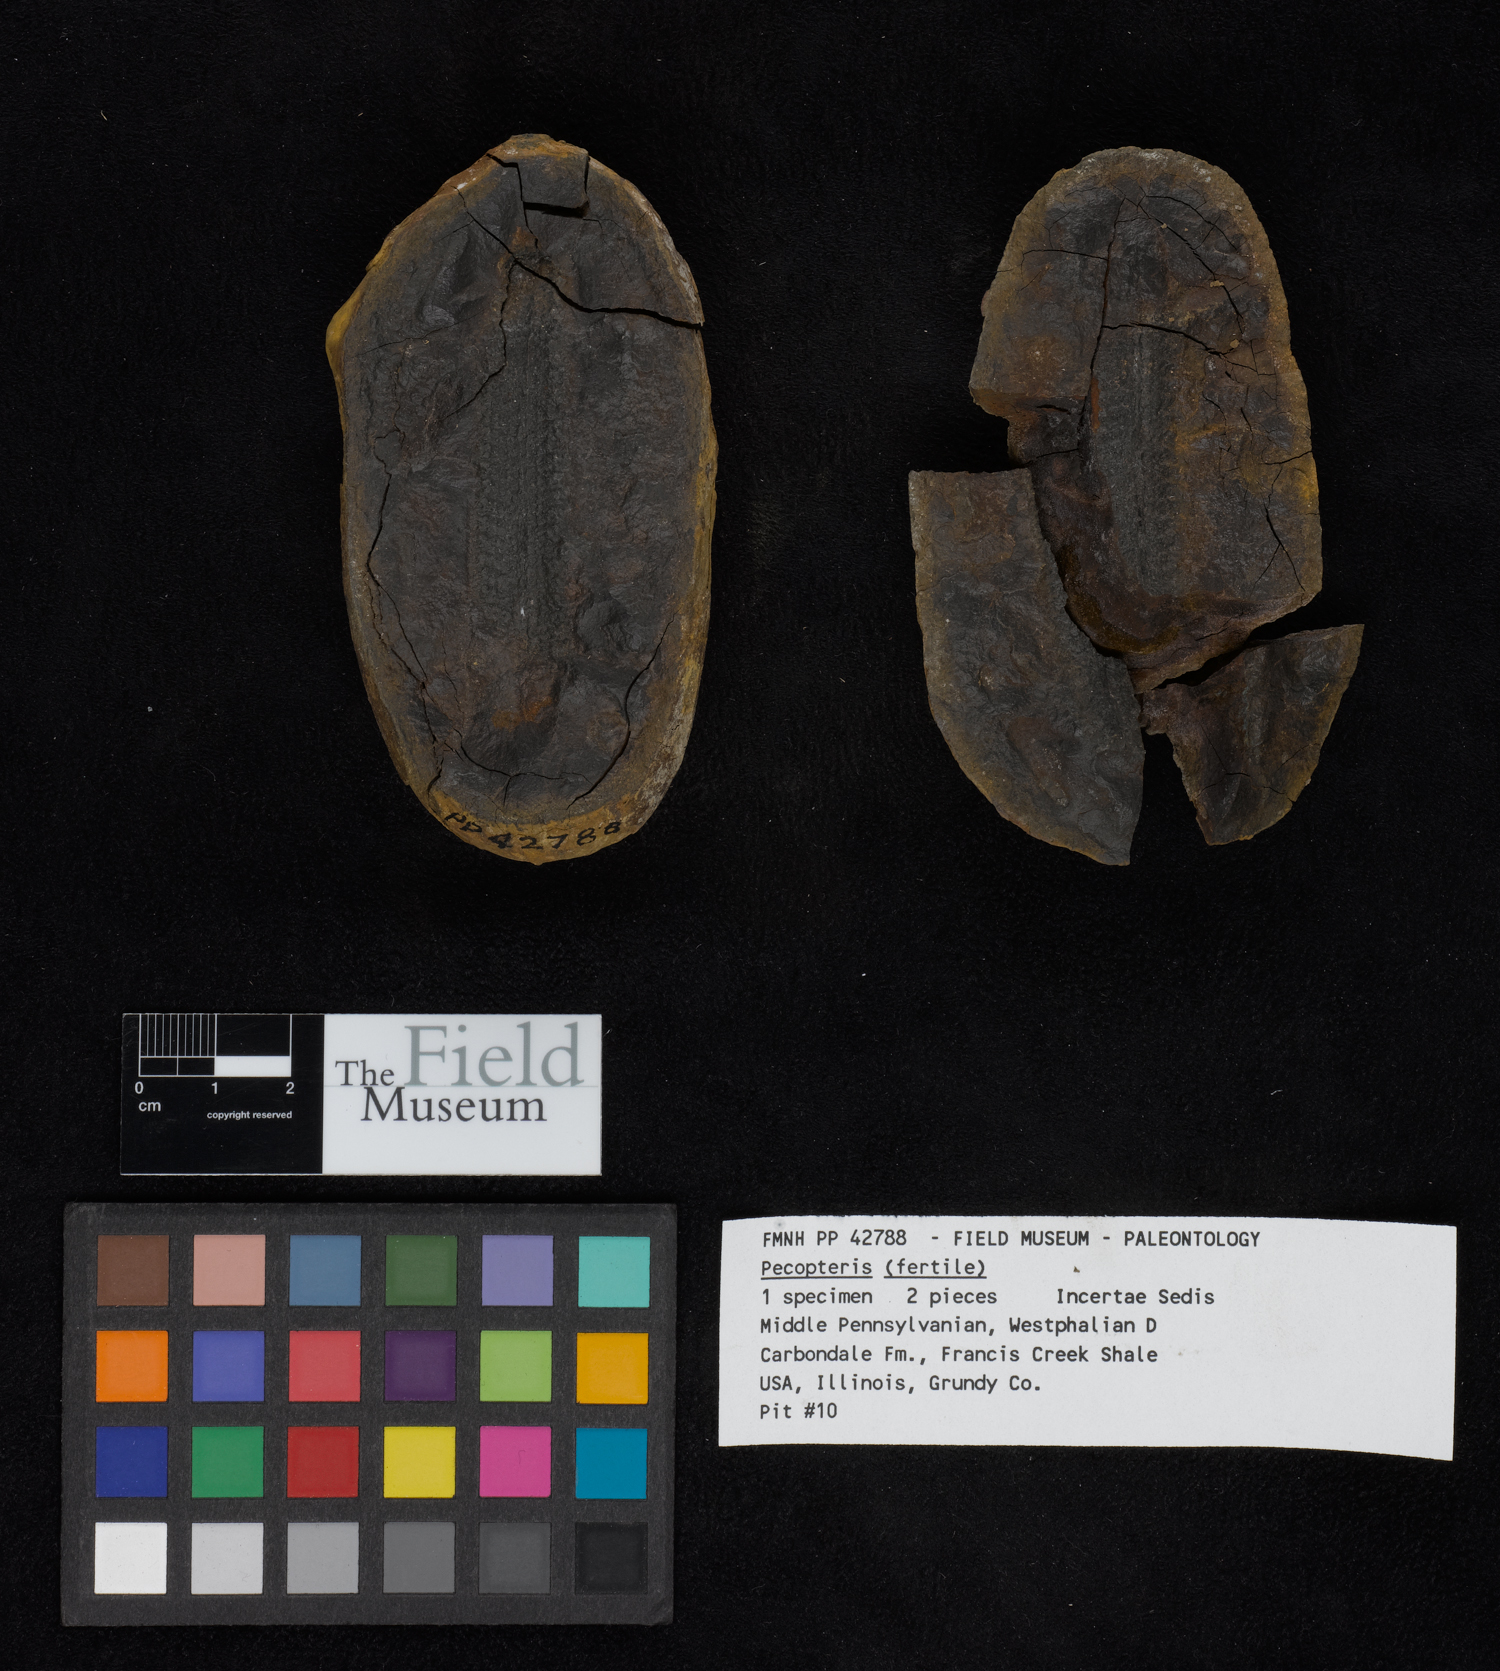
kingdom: Plantae
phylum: Tracheophyta
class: Polypodiopsida
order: Marattiales
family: Asterothecaceae
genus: Pecopteris
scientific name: Pecopteris
